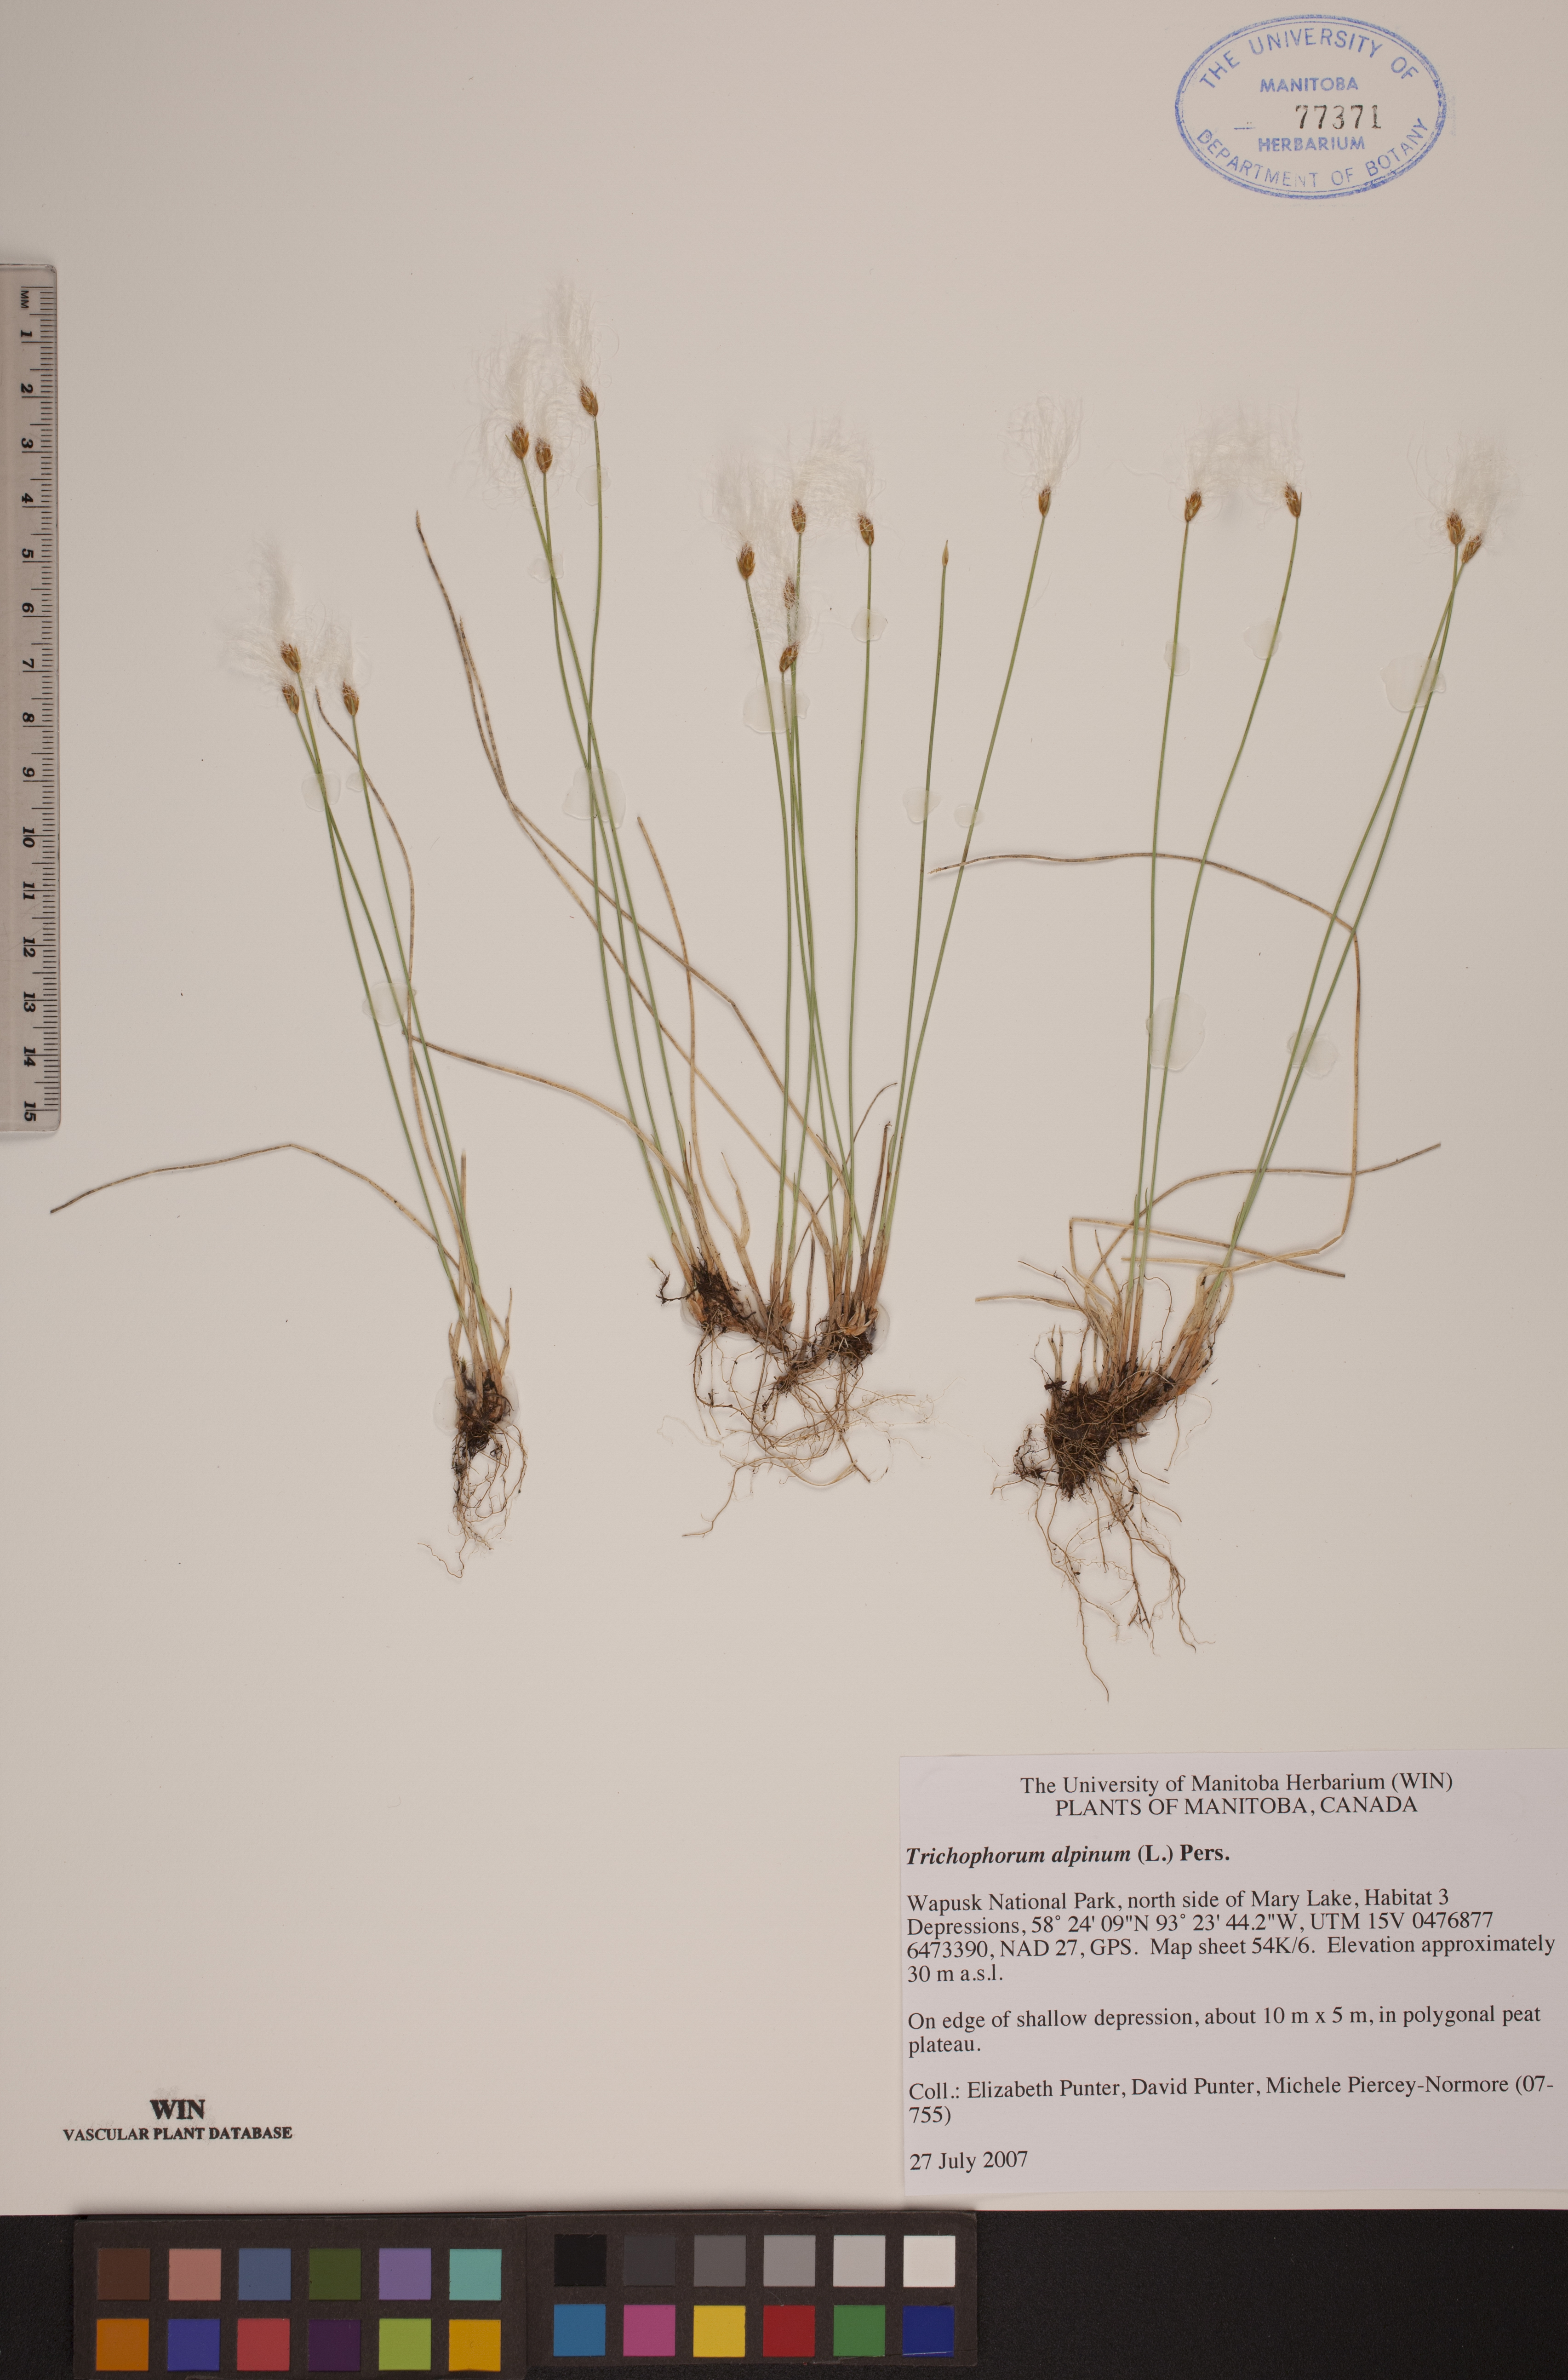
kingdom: Plantae
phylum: Tracheophyta
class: Liliopsida
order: Poales
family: Cyperaceae
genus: Trichophorum
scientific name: Trichophorum alpinum
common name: Alpine bulrush
